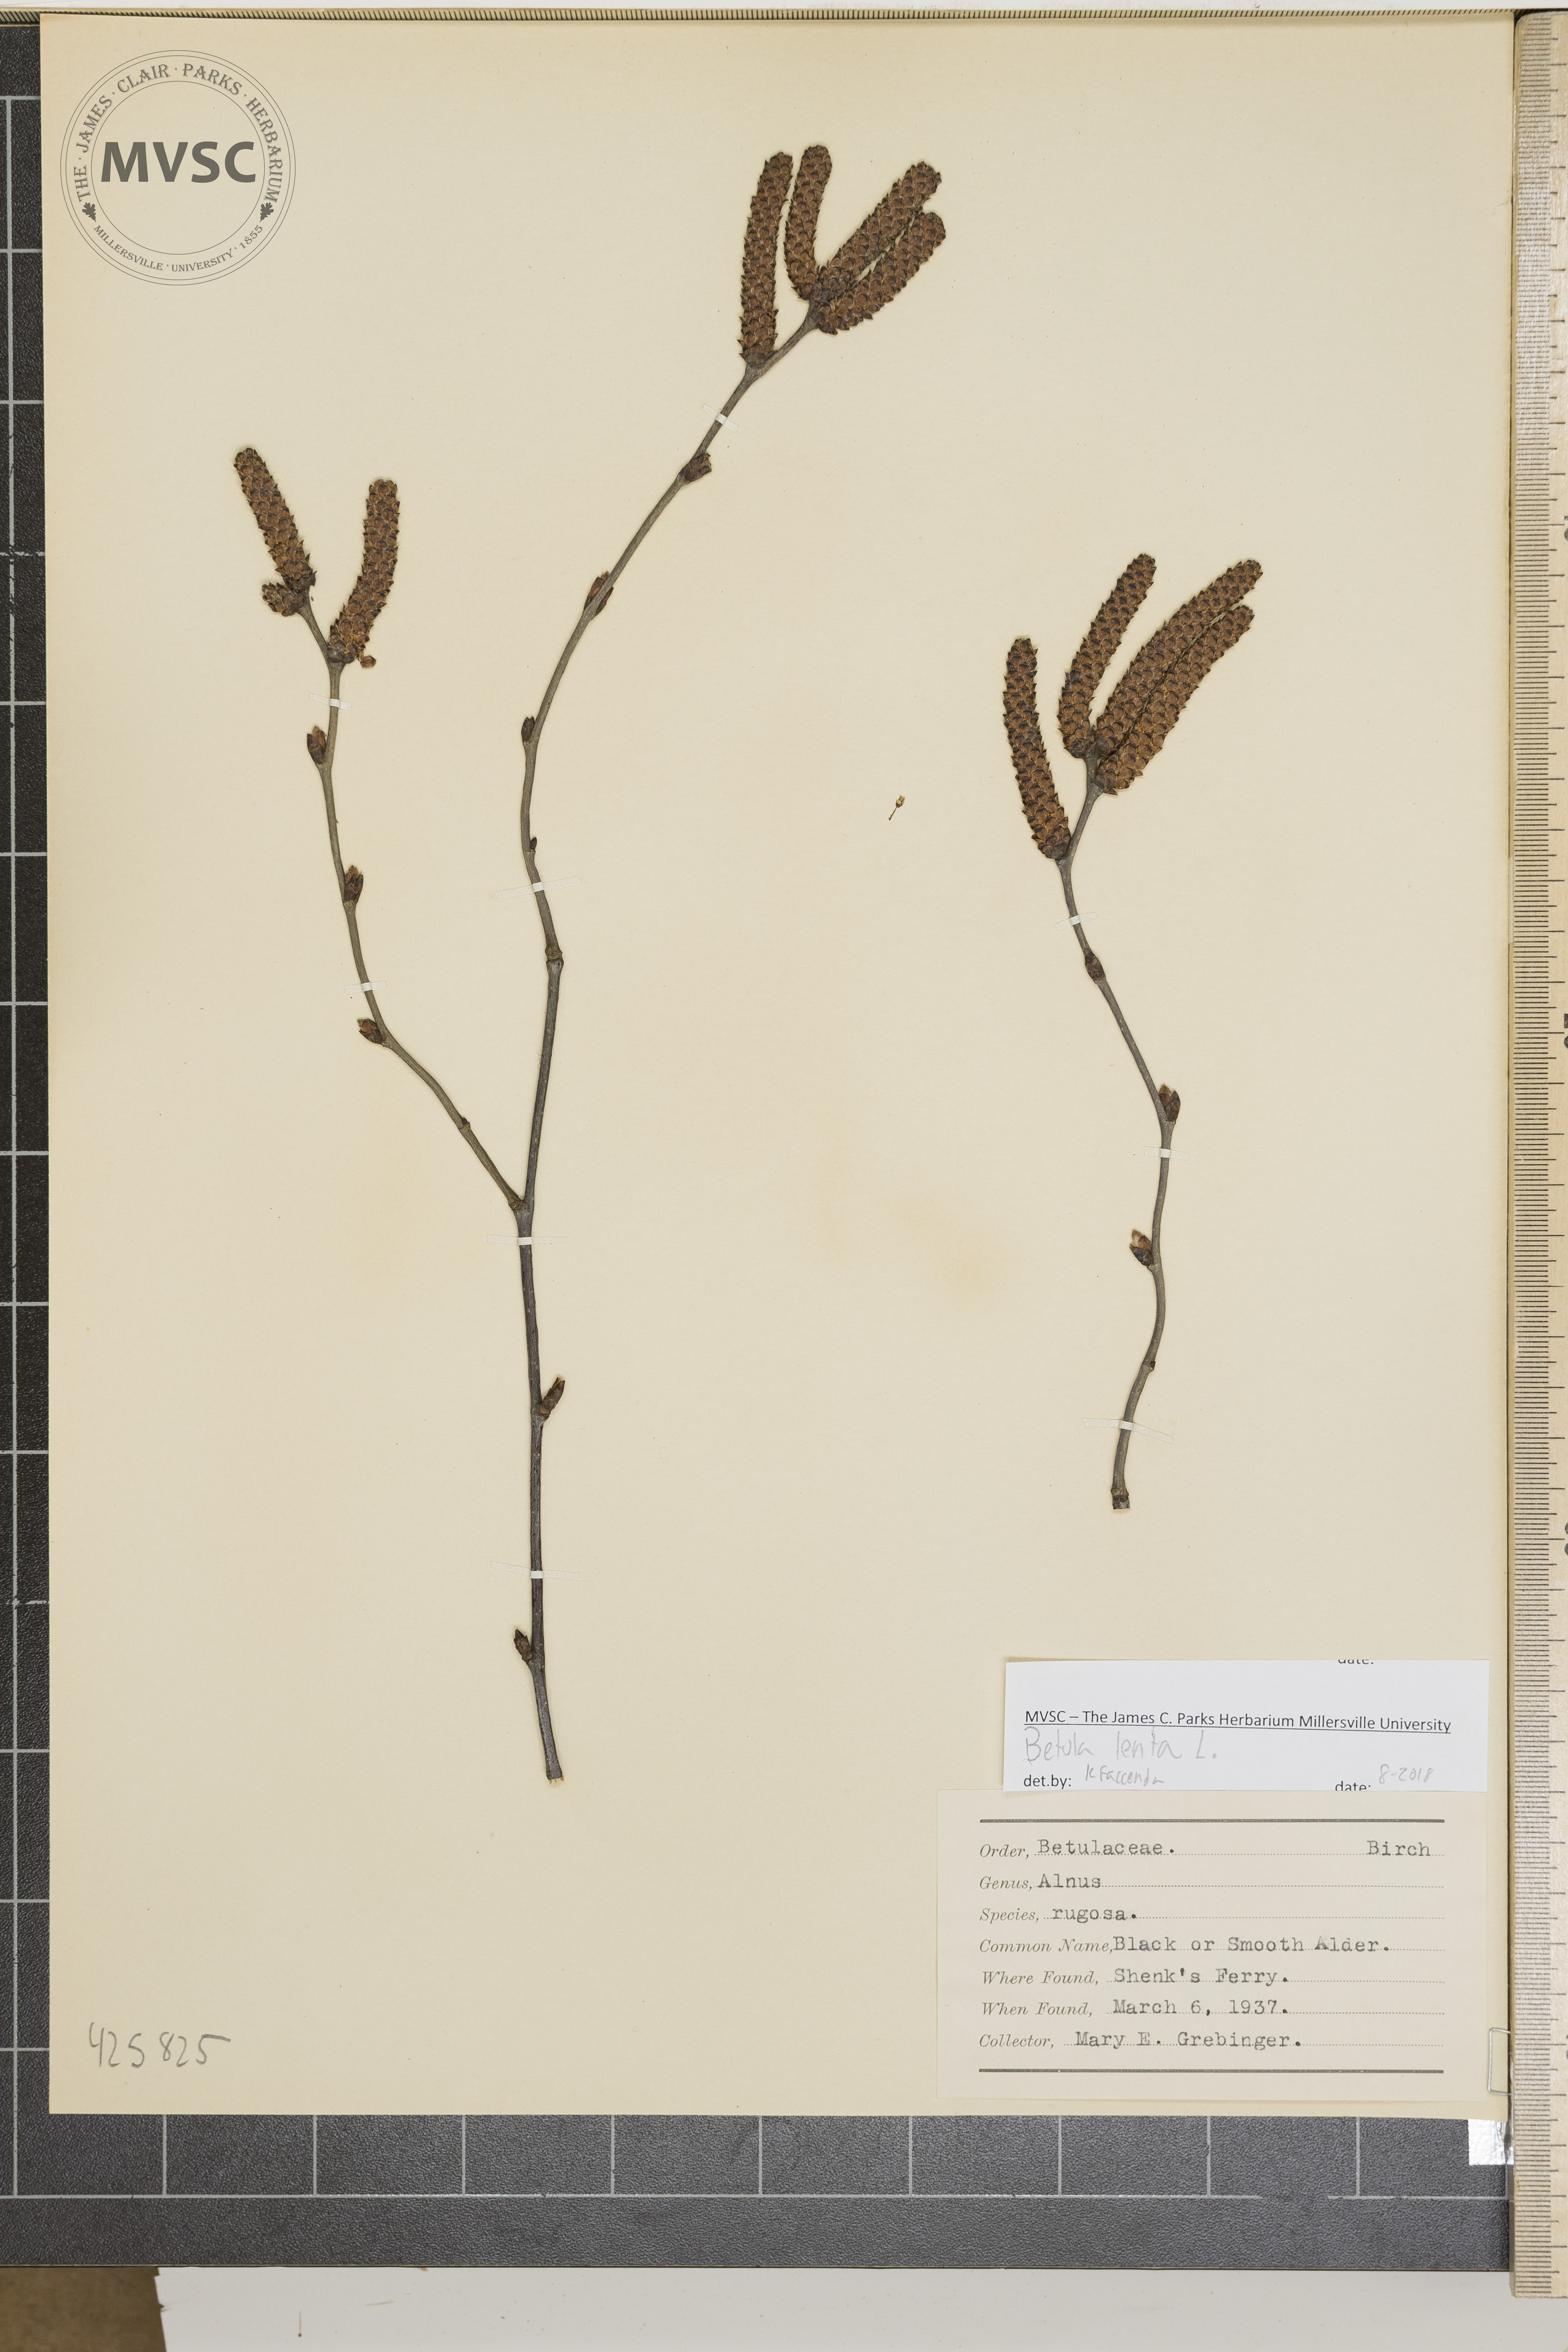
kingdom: Plantae
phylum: Tracheophyta
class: Magnoliopsida
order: Fagales
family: Betulaceae
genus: Alnus
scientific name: Alnus serrulata
